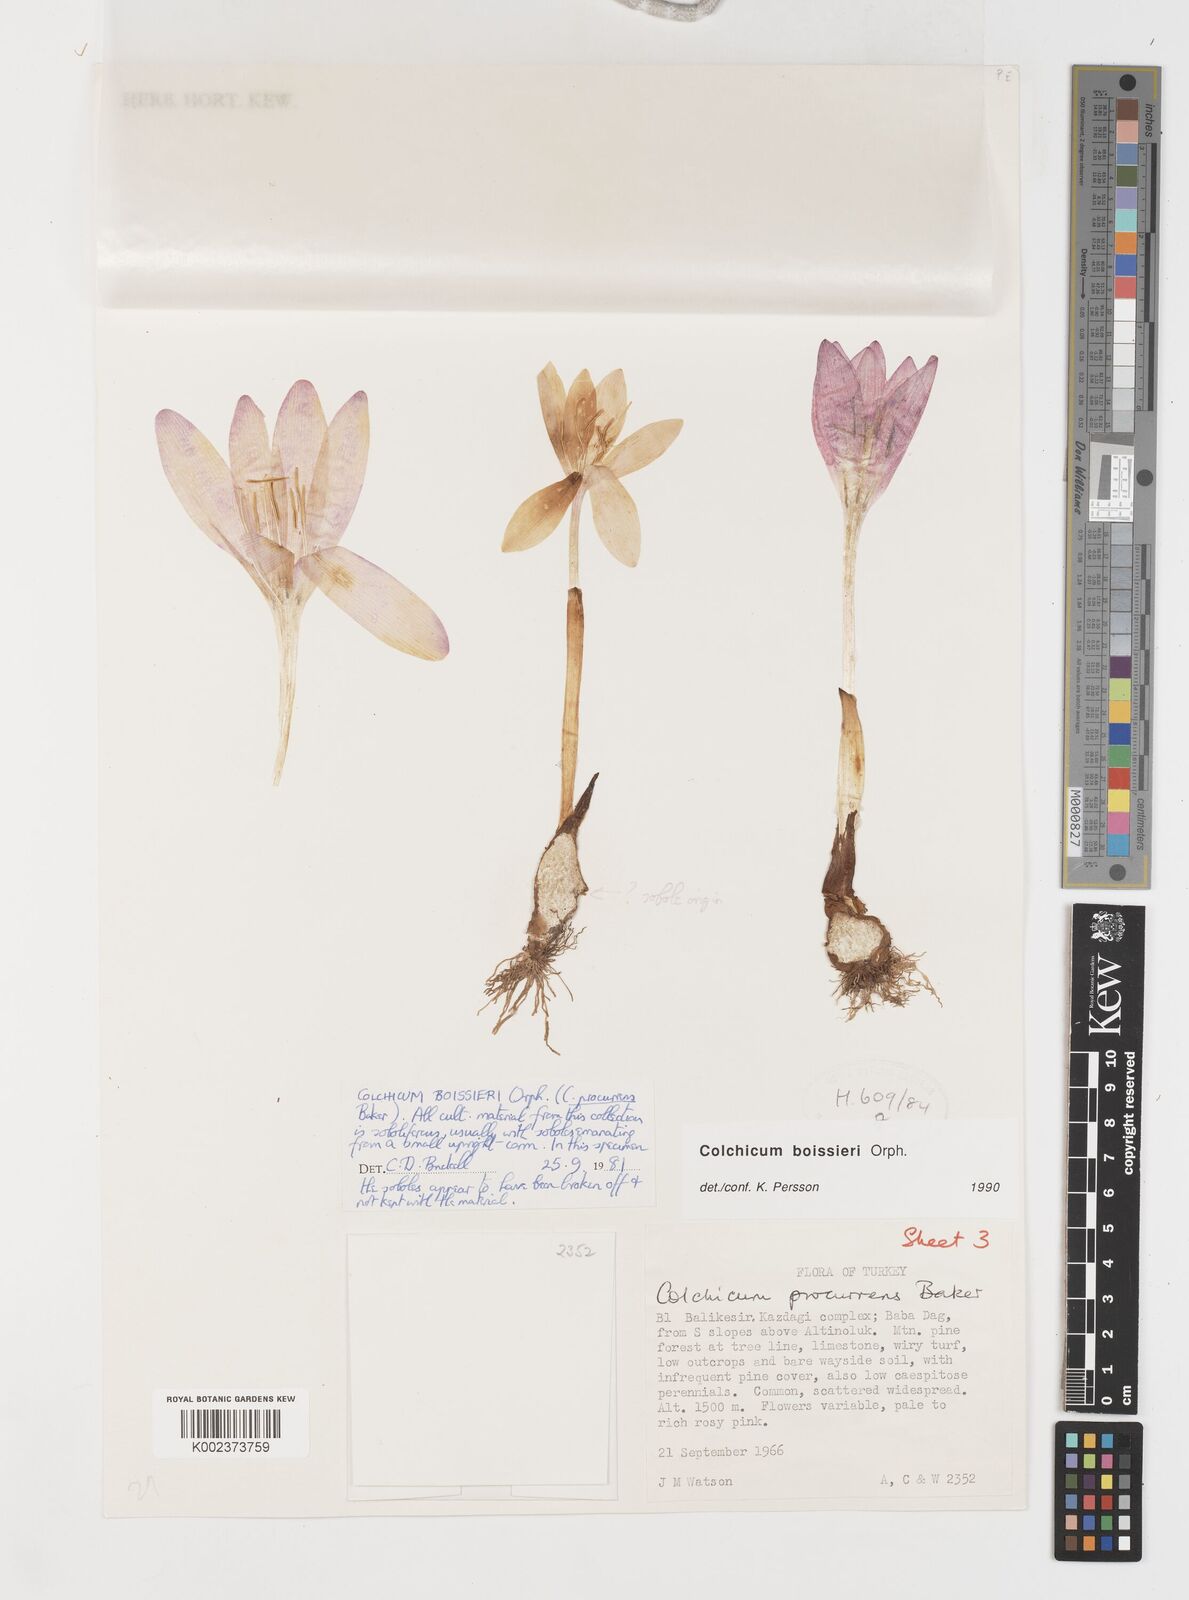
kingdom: Plantae
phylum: Tracheophyta
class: Liliopsida
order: Liliales
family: Colchicaceae
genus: Colchicum
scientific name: Colchicum boissieri
